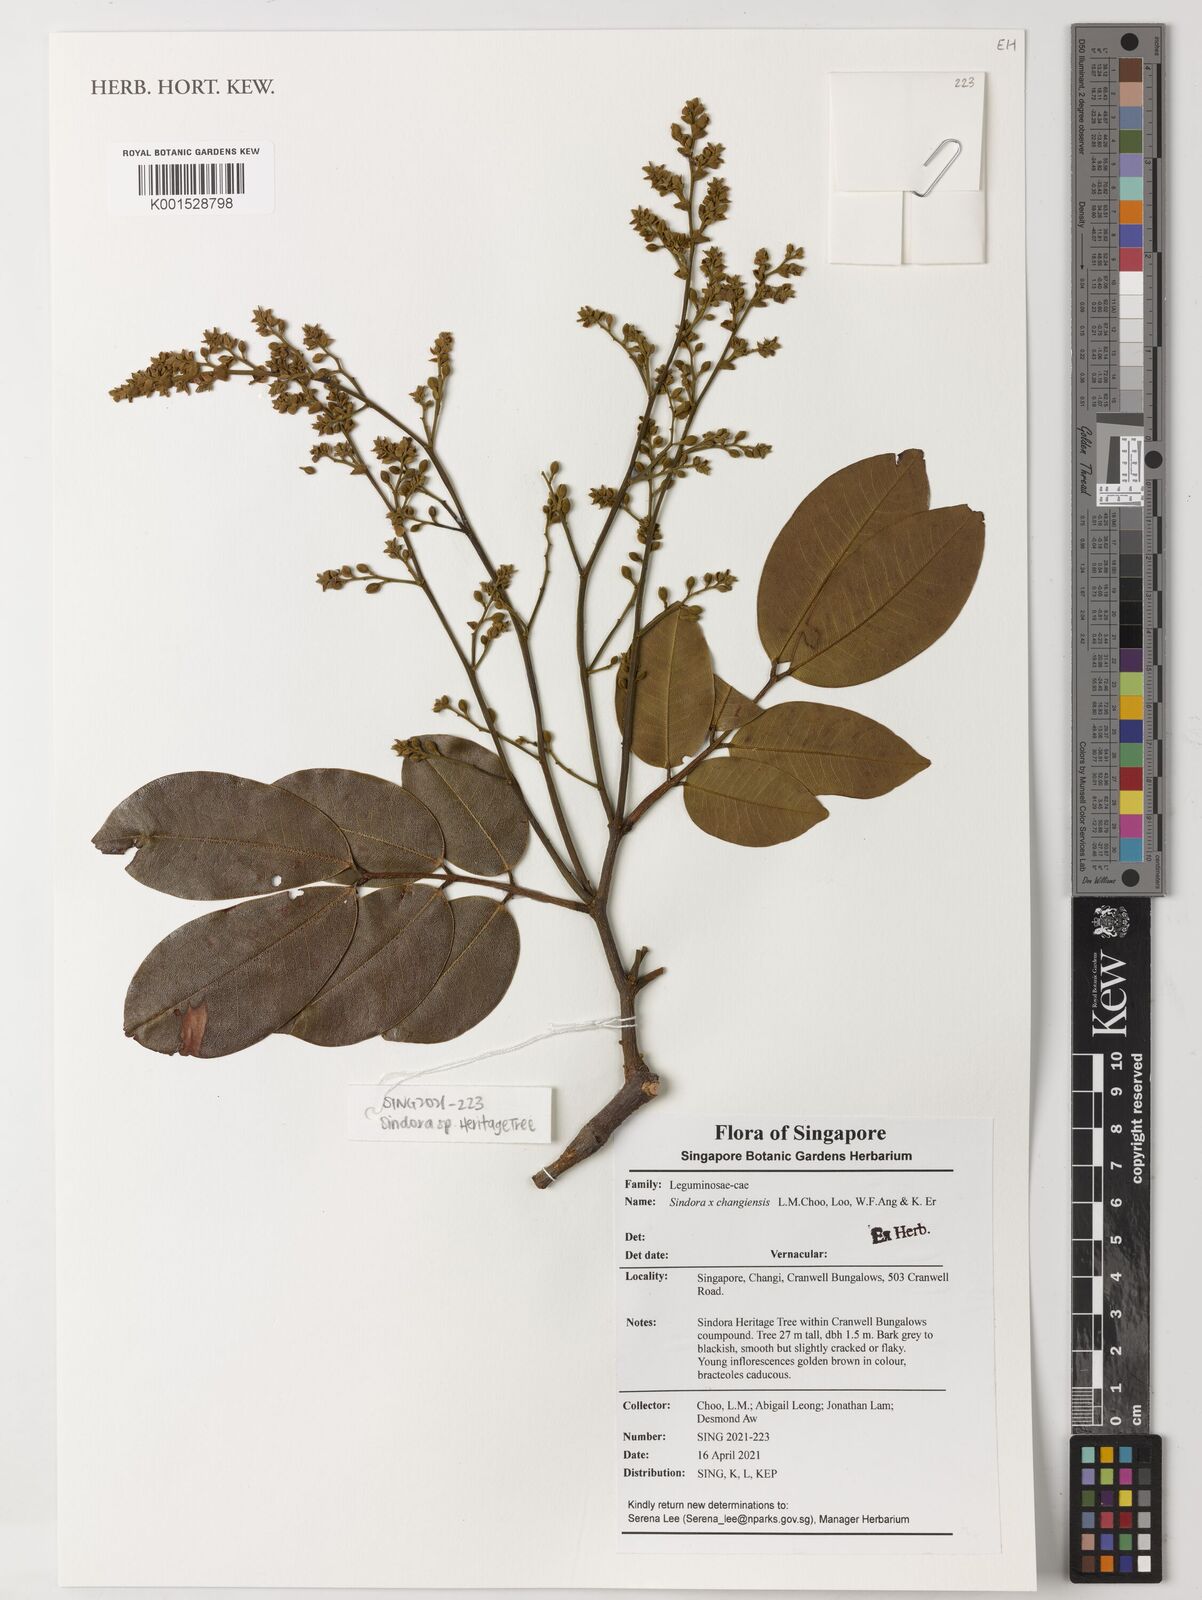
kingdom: Plantae
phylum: Tracheophyta
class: Magnoliopsida
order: Fabales
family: Fabaceae
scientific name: Fabaceae
